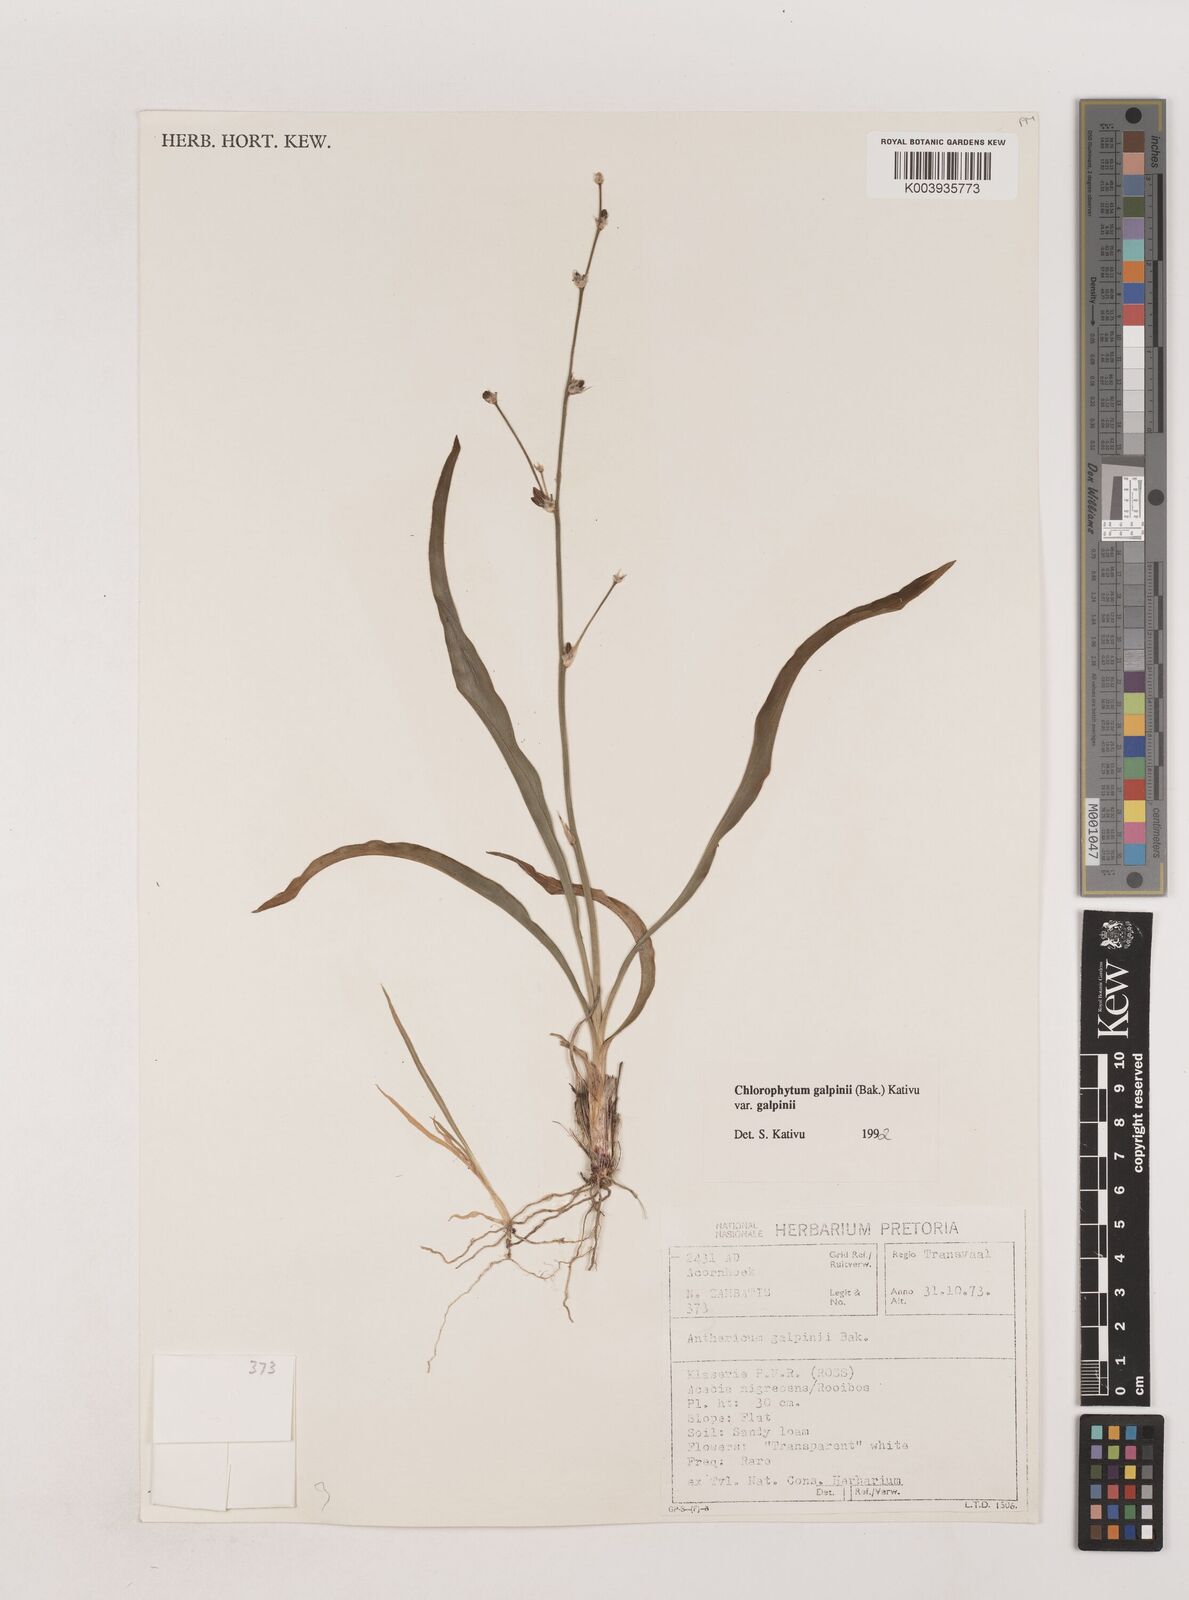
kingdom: Plantae
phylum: Tracheophyta
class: Liliopsida
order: Asparagales
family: Asparagaceae
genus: Chlorophytum
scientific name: Chlorophytum galpinii
